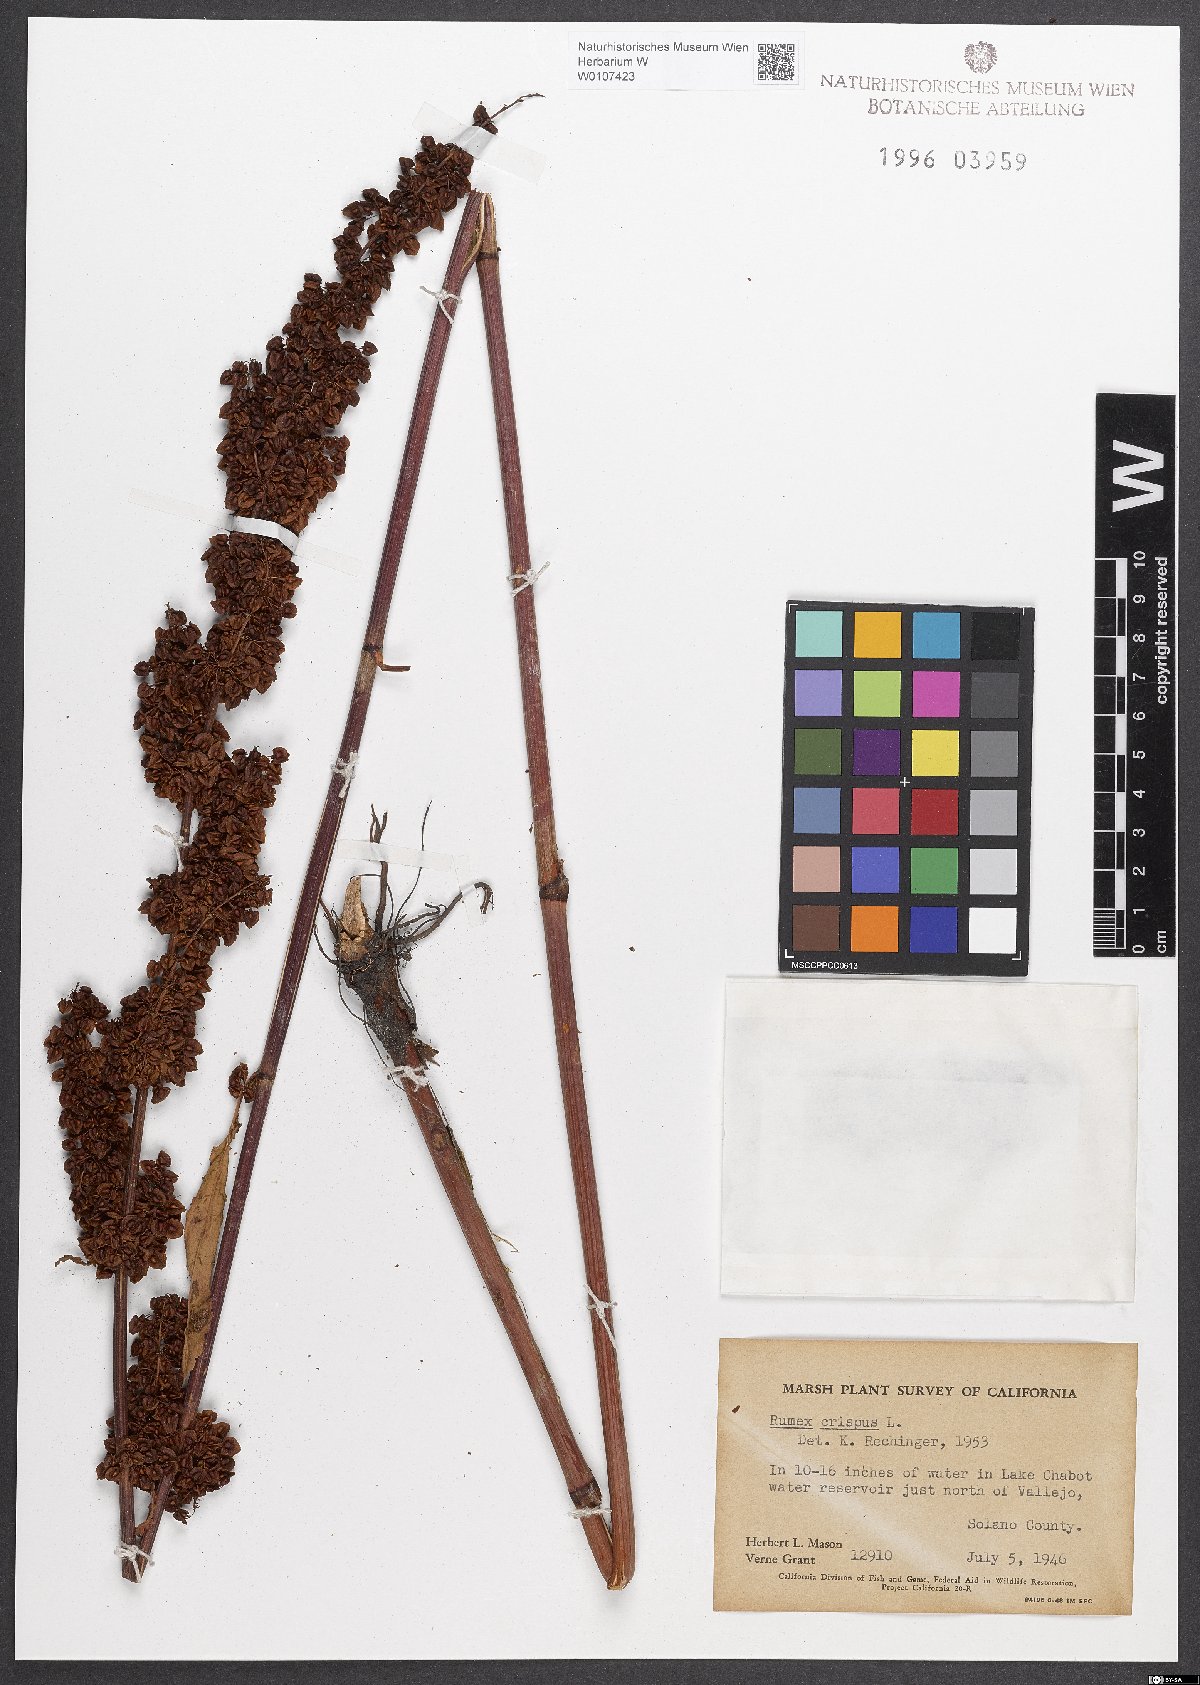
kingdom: Plantae
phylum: Tracheophyta
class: Magnoliopsida
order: Caryophyllales
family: Polygonaceae
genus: Rumex
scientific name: Rumex crispus
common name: Curled dock
